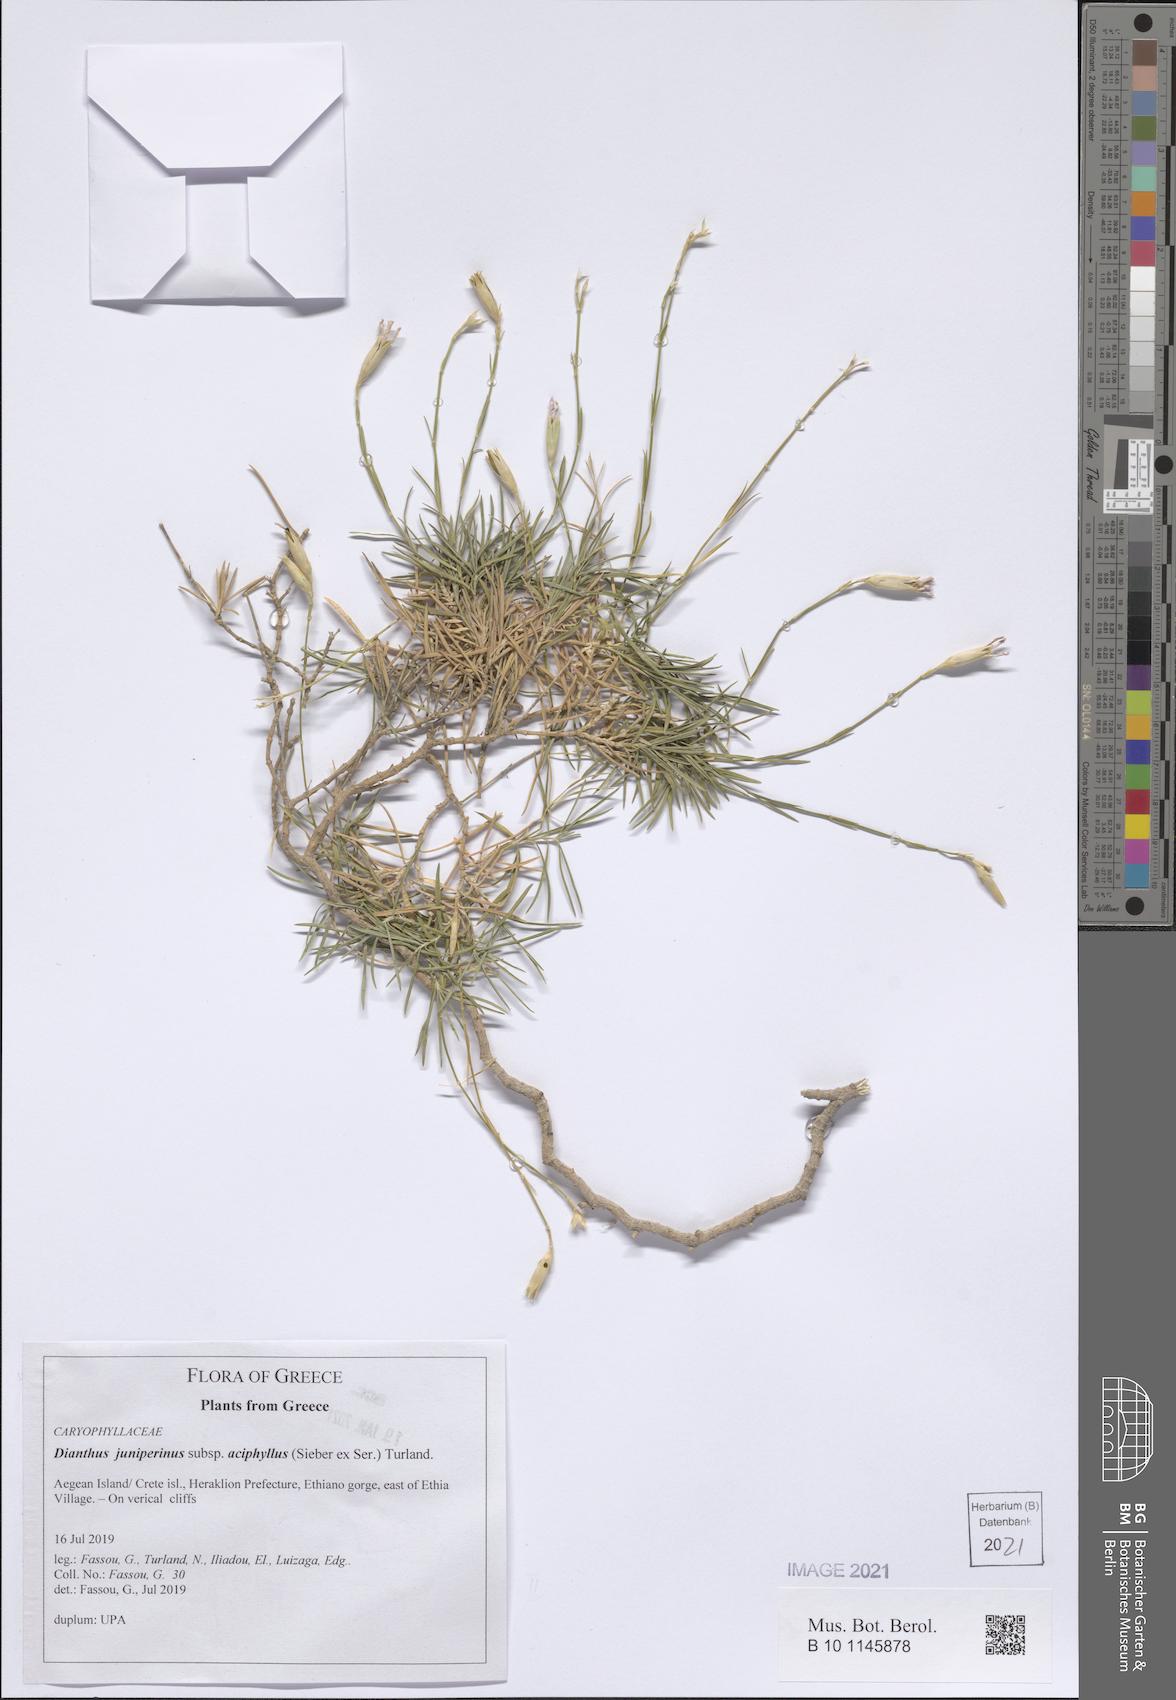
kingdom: Plantae
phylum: Tracheophyta
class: Magnoliopsida
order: Caryophyllales
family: Caryophyllaceae
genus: Dianthus
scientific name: Dianthus juniperinus
